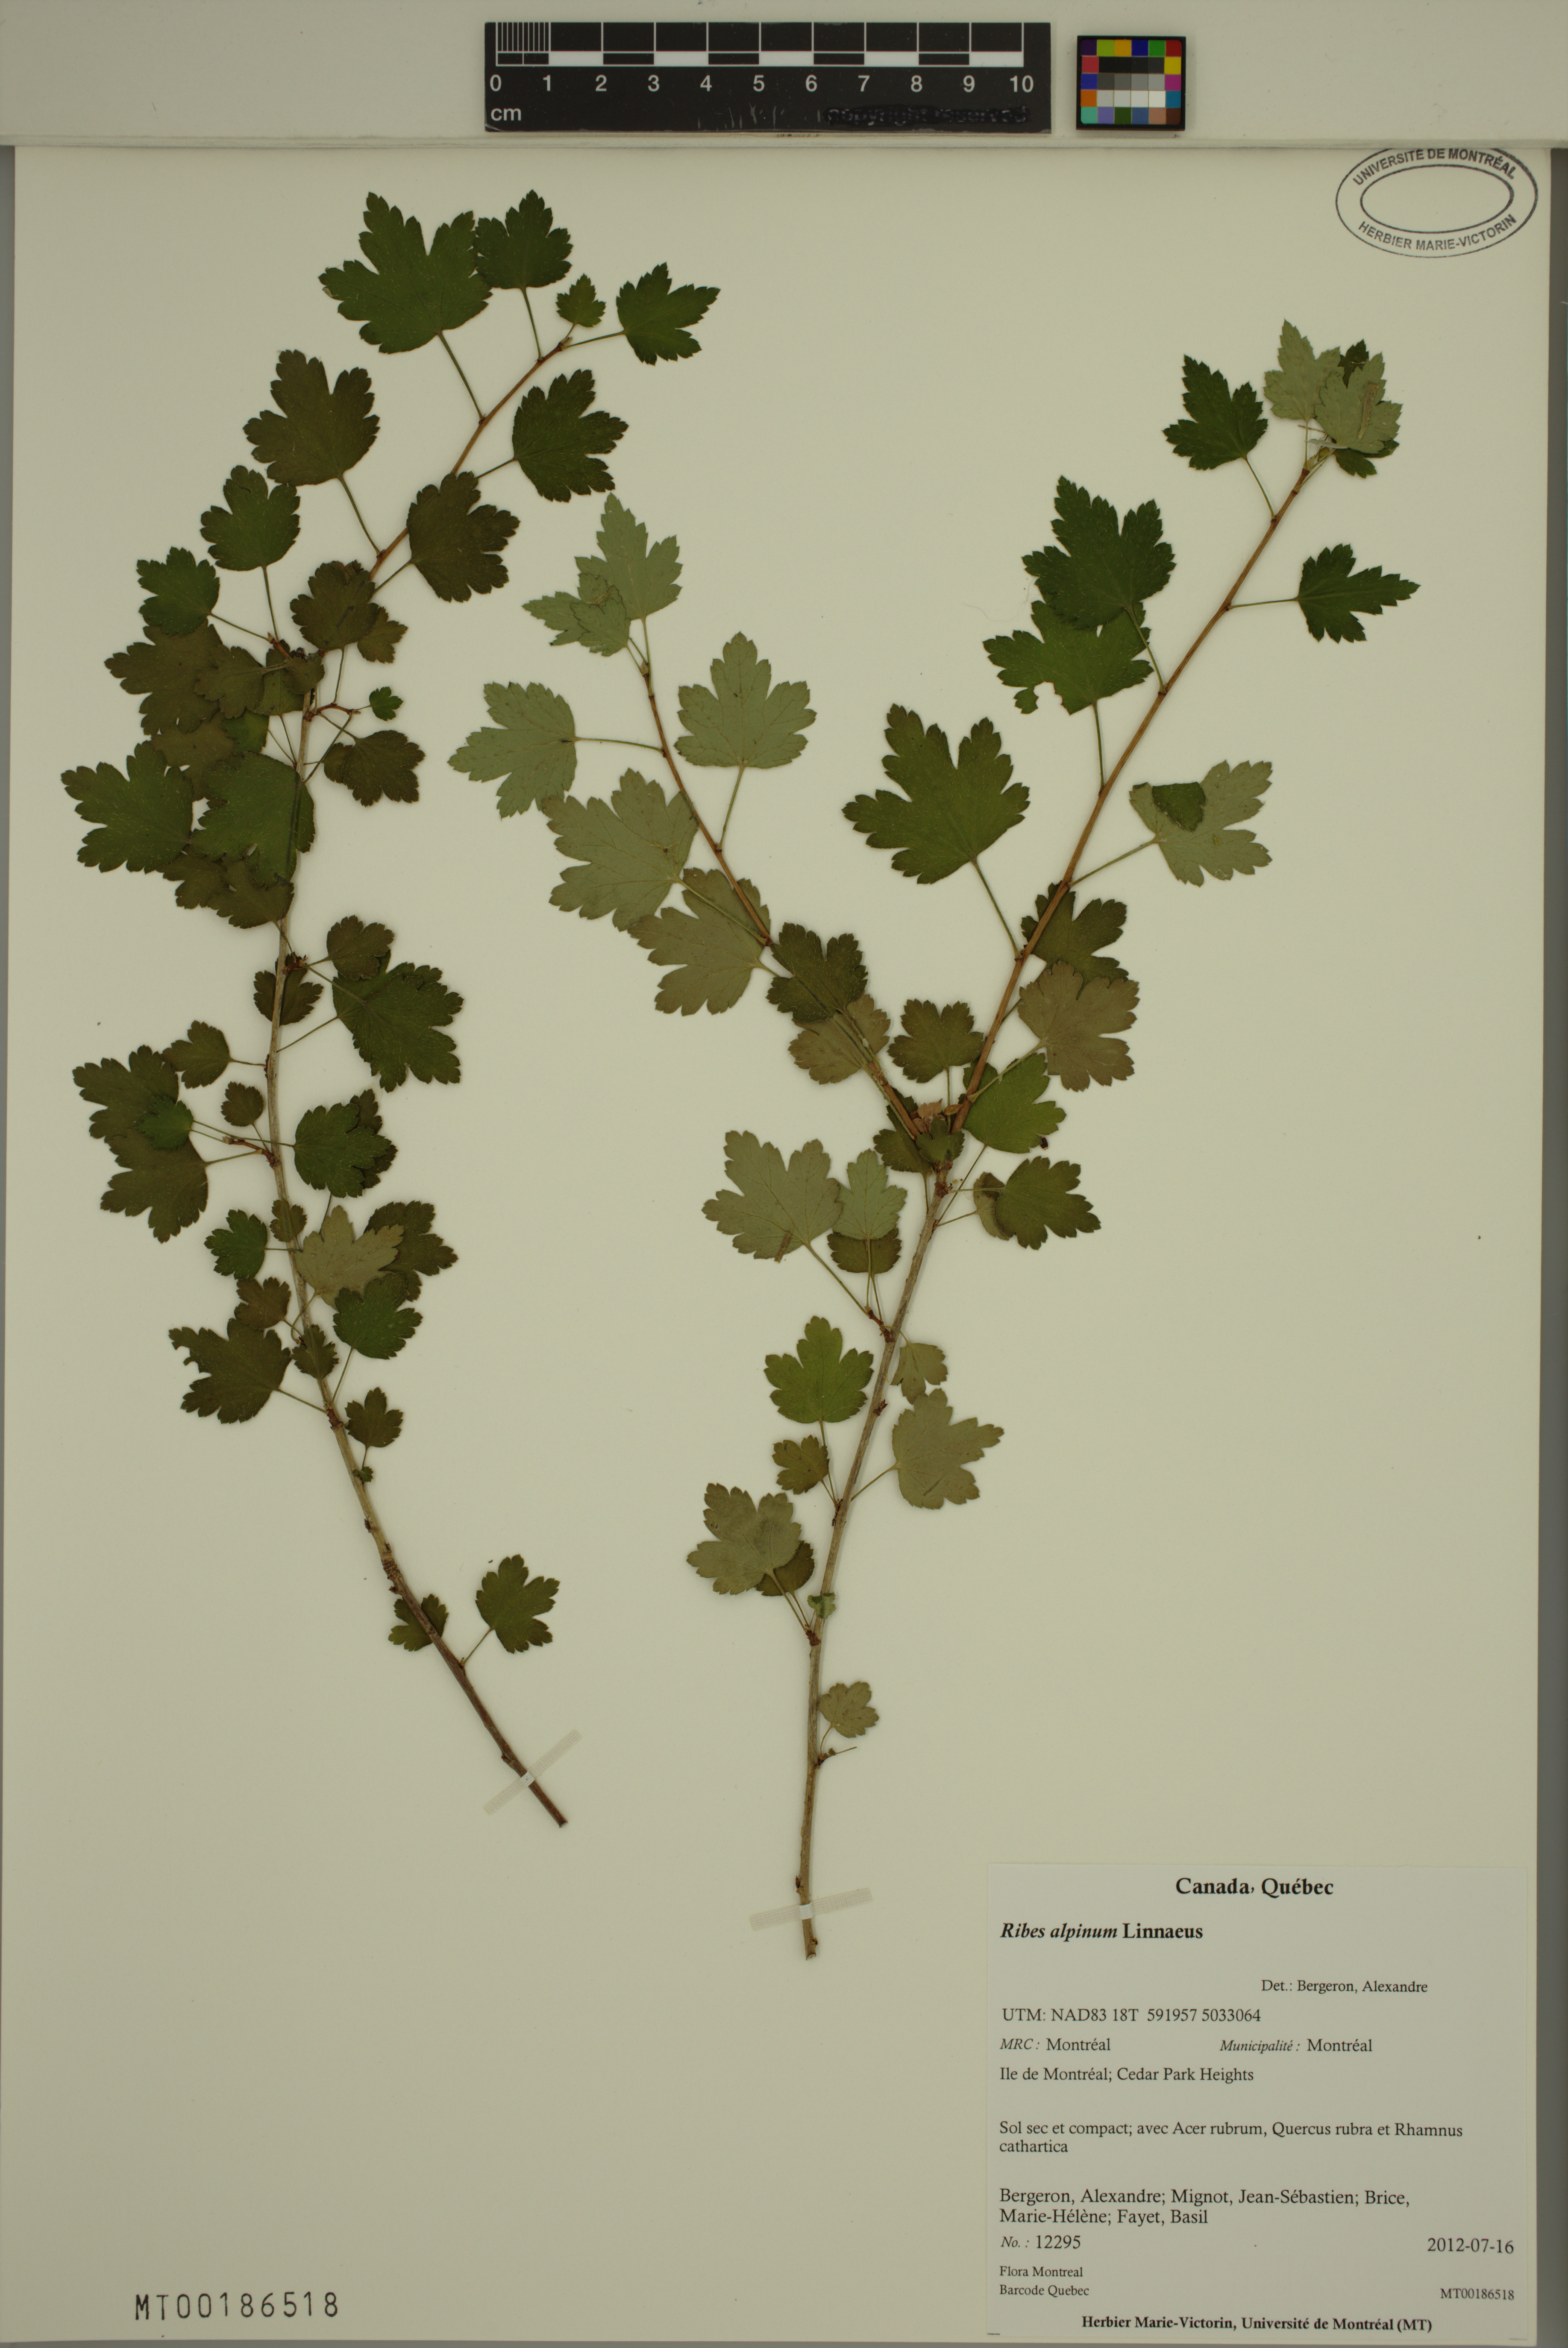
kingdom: Plantae
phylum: Tracheophyta
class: Magnoliopsida
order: Saxifragales
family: Grossulariaceae
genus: Ribes
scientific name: Ribes alpinum
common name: Alpine currant
